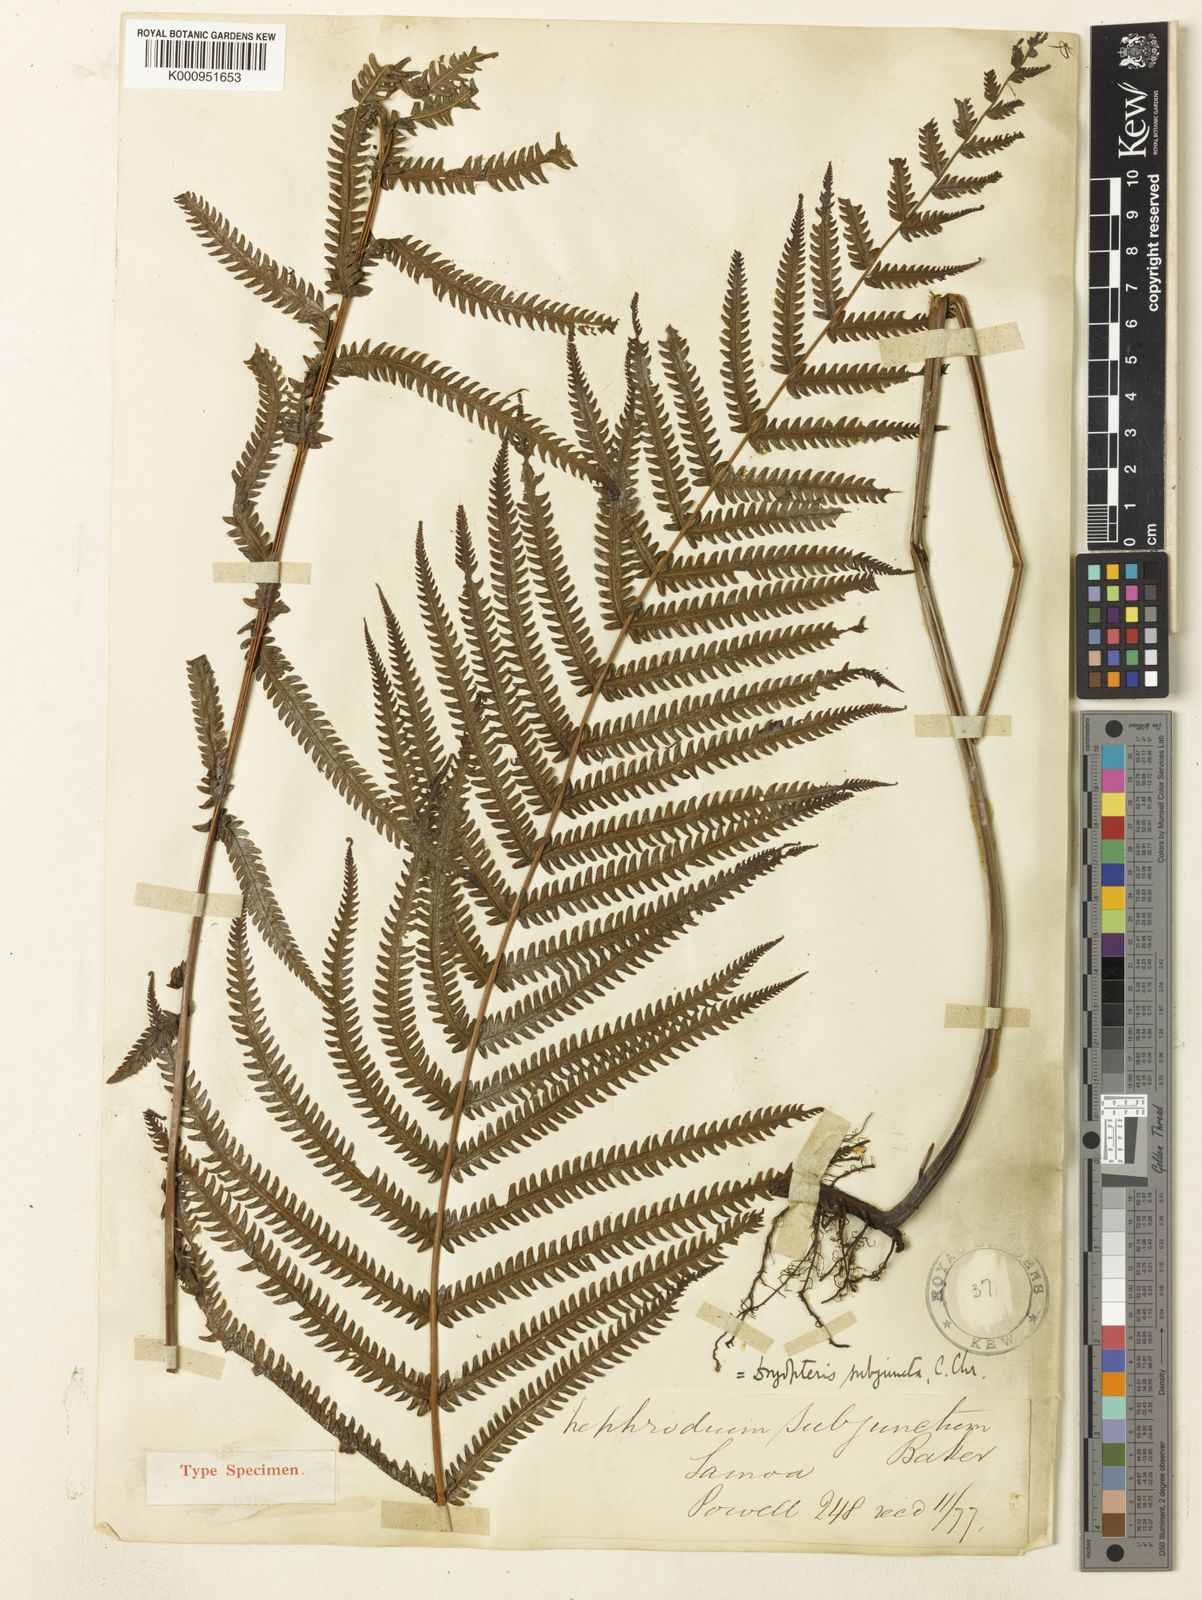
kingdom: Plantae
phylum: Tracheophyta
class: Polypodiopsida
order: Polypodiales
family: Thelypteridaceae
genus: Christella
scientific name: Christella subjuncta
